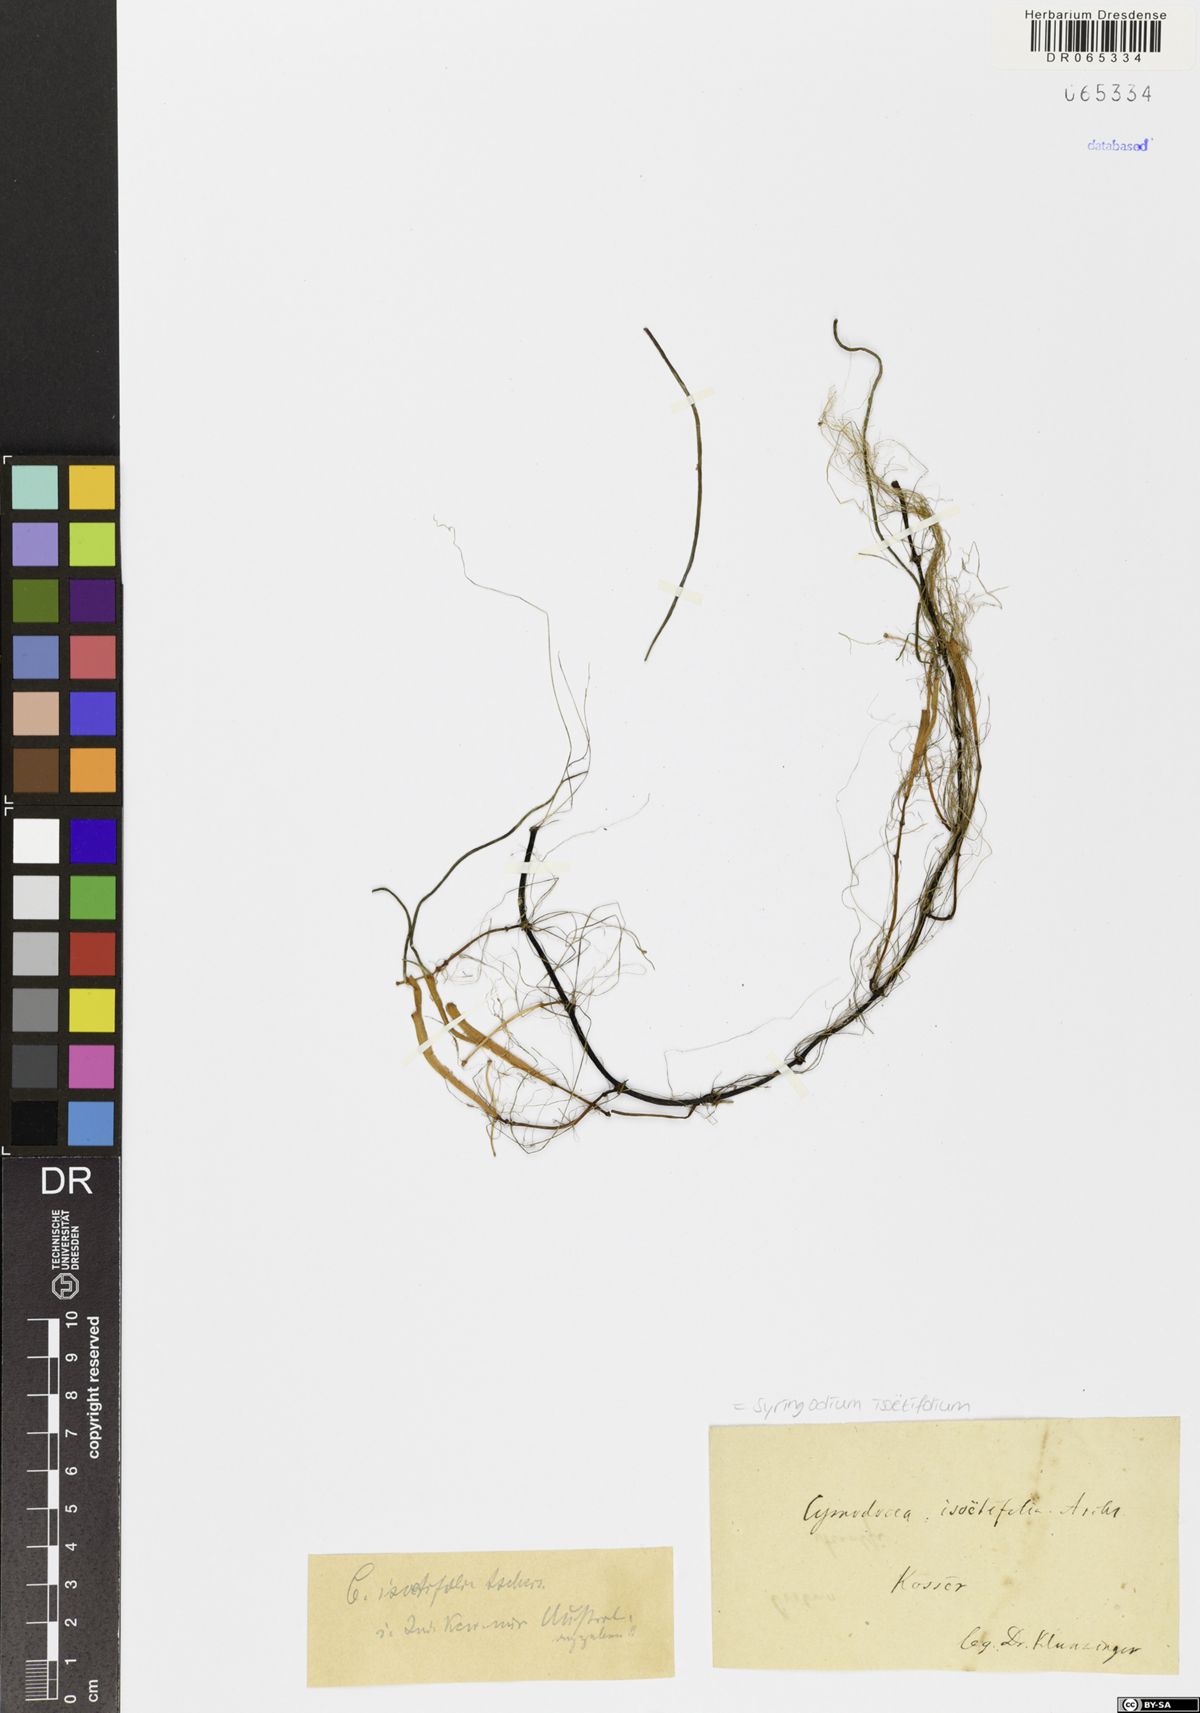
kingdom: Plantae
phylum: Tracheophyta
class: Liliopsida
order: Alismatales
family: Cymodoceaceae
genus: Syringodium
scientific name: Syringodium isoetifolium
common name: Species code: si
